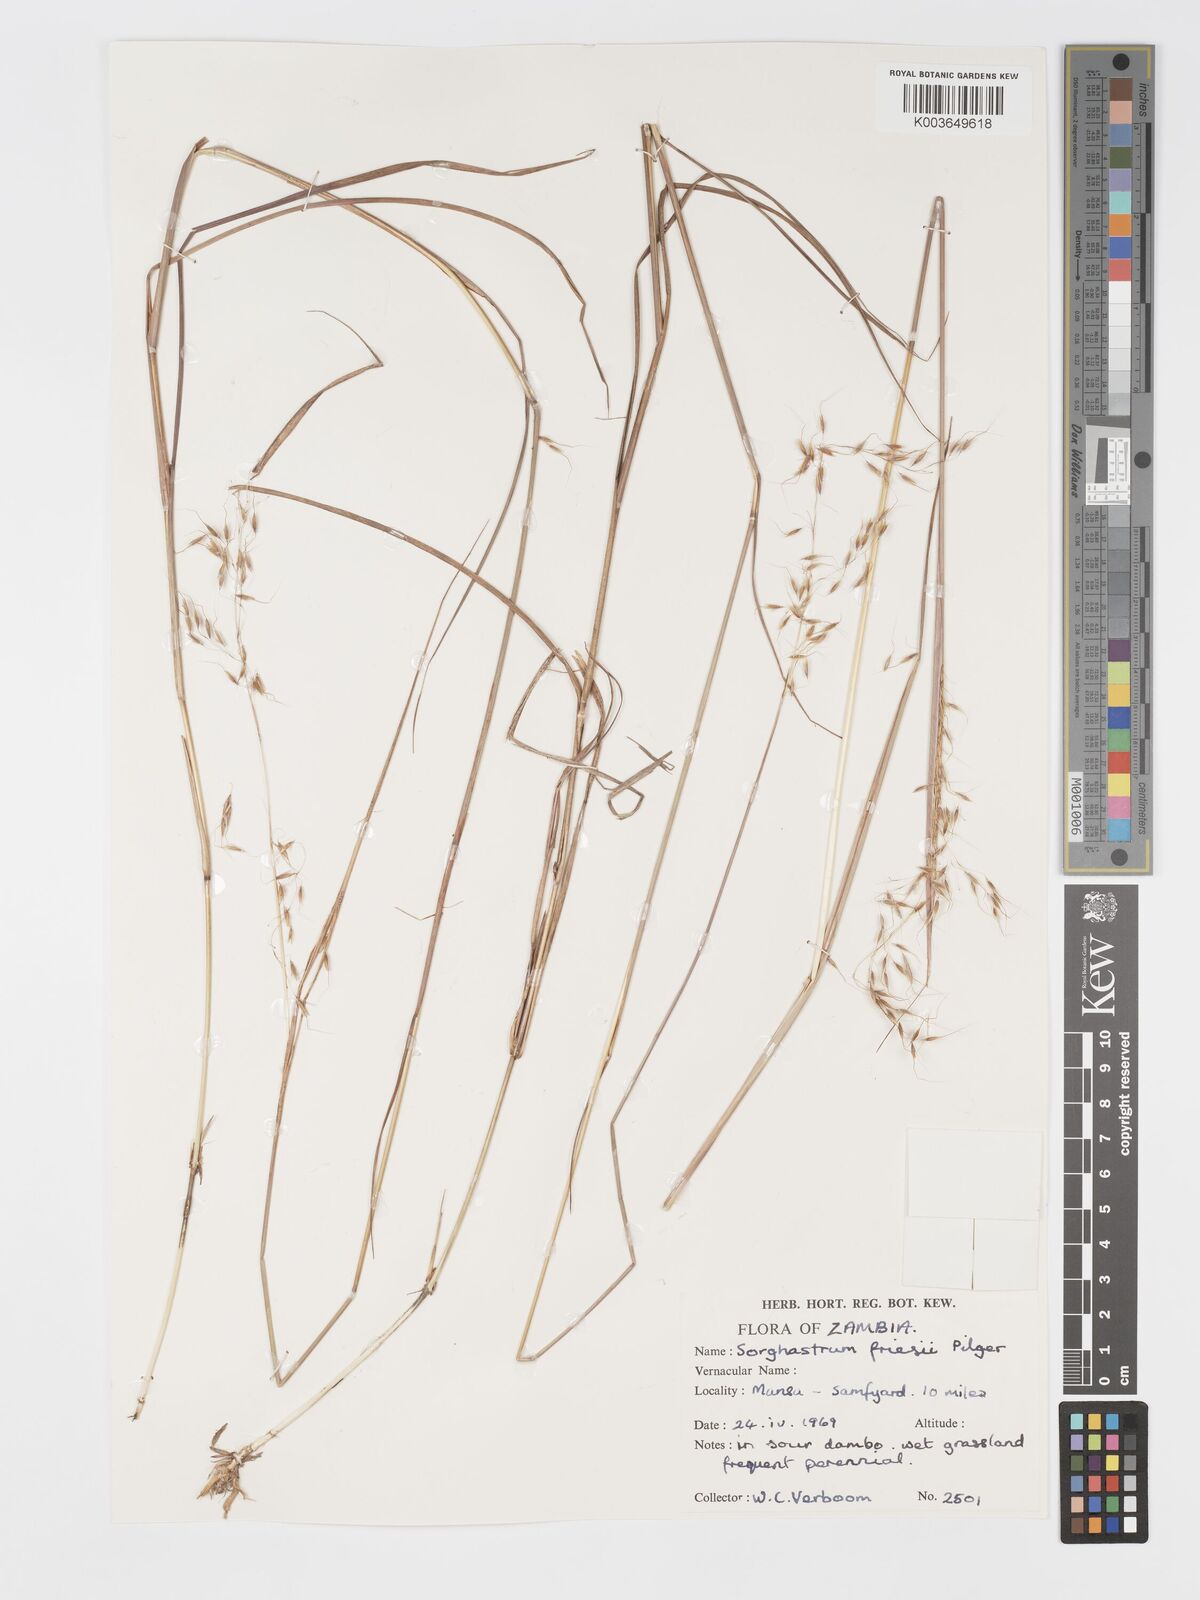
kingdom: Plantae
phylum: Tracheophyta
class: Liliopsida
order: Poales
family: Poaceae
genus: Sorghastrum
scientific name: Sorghastrum stipoides
